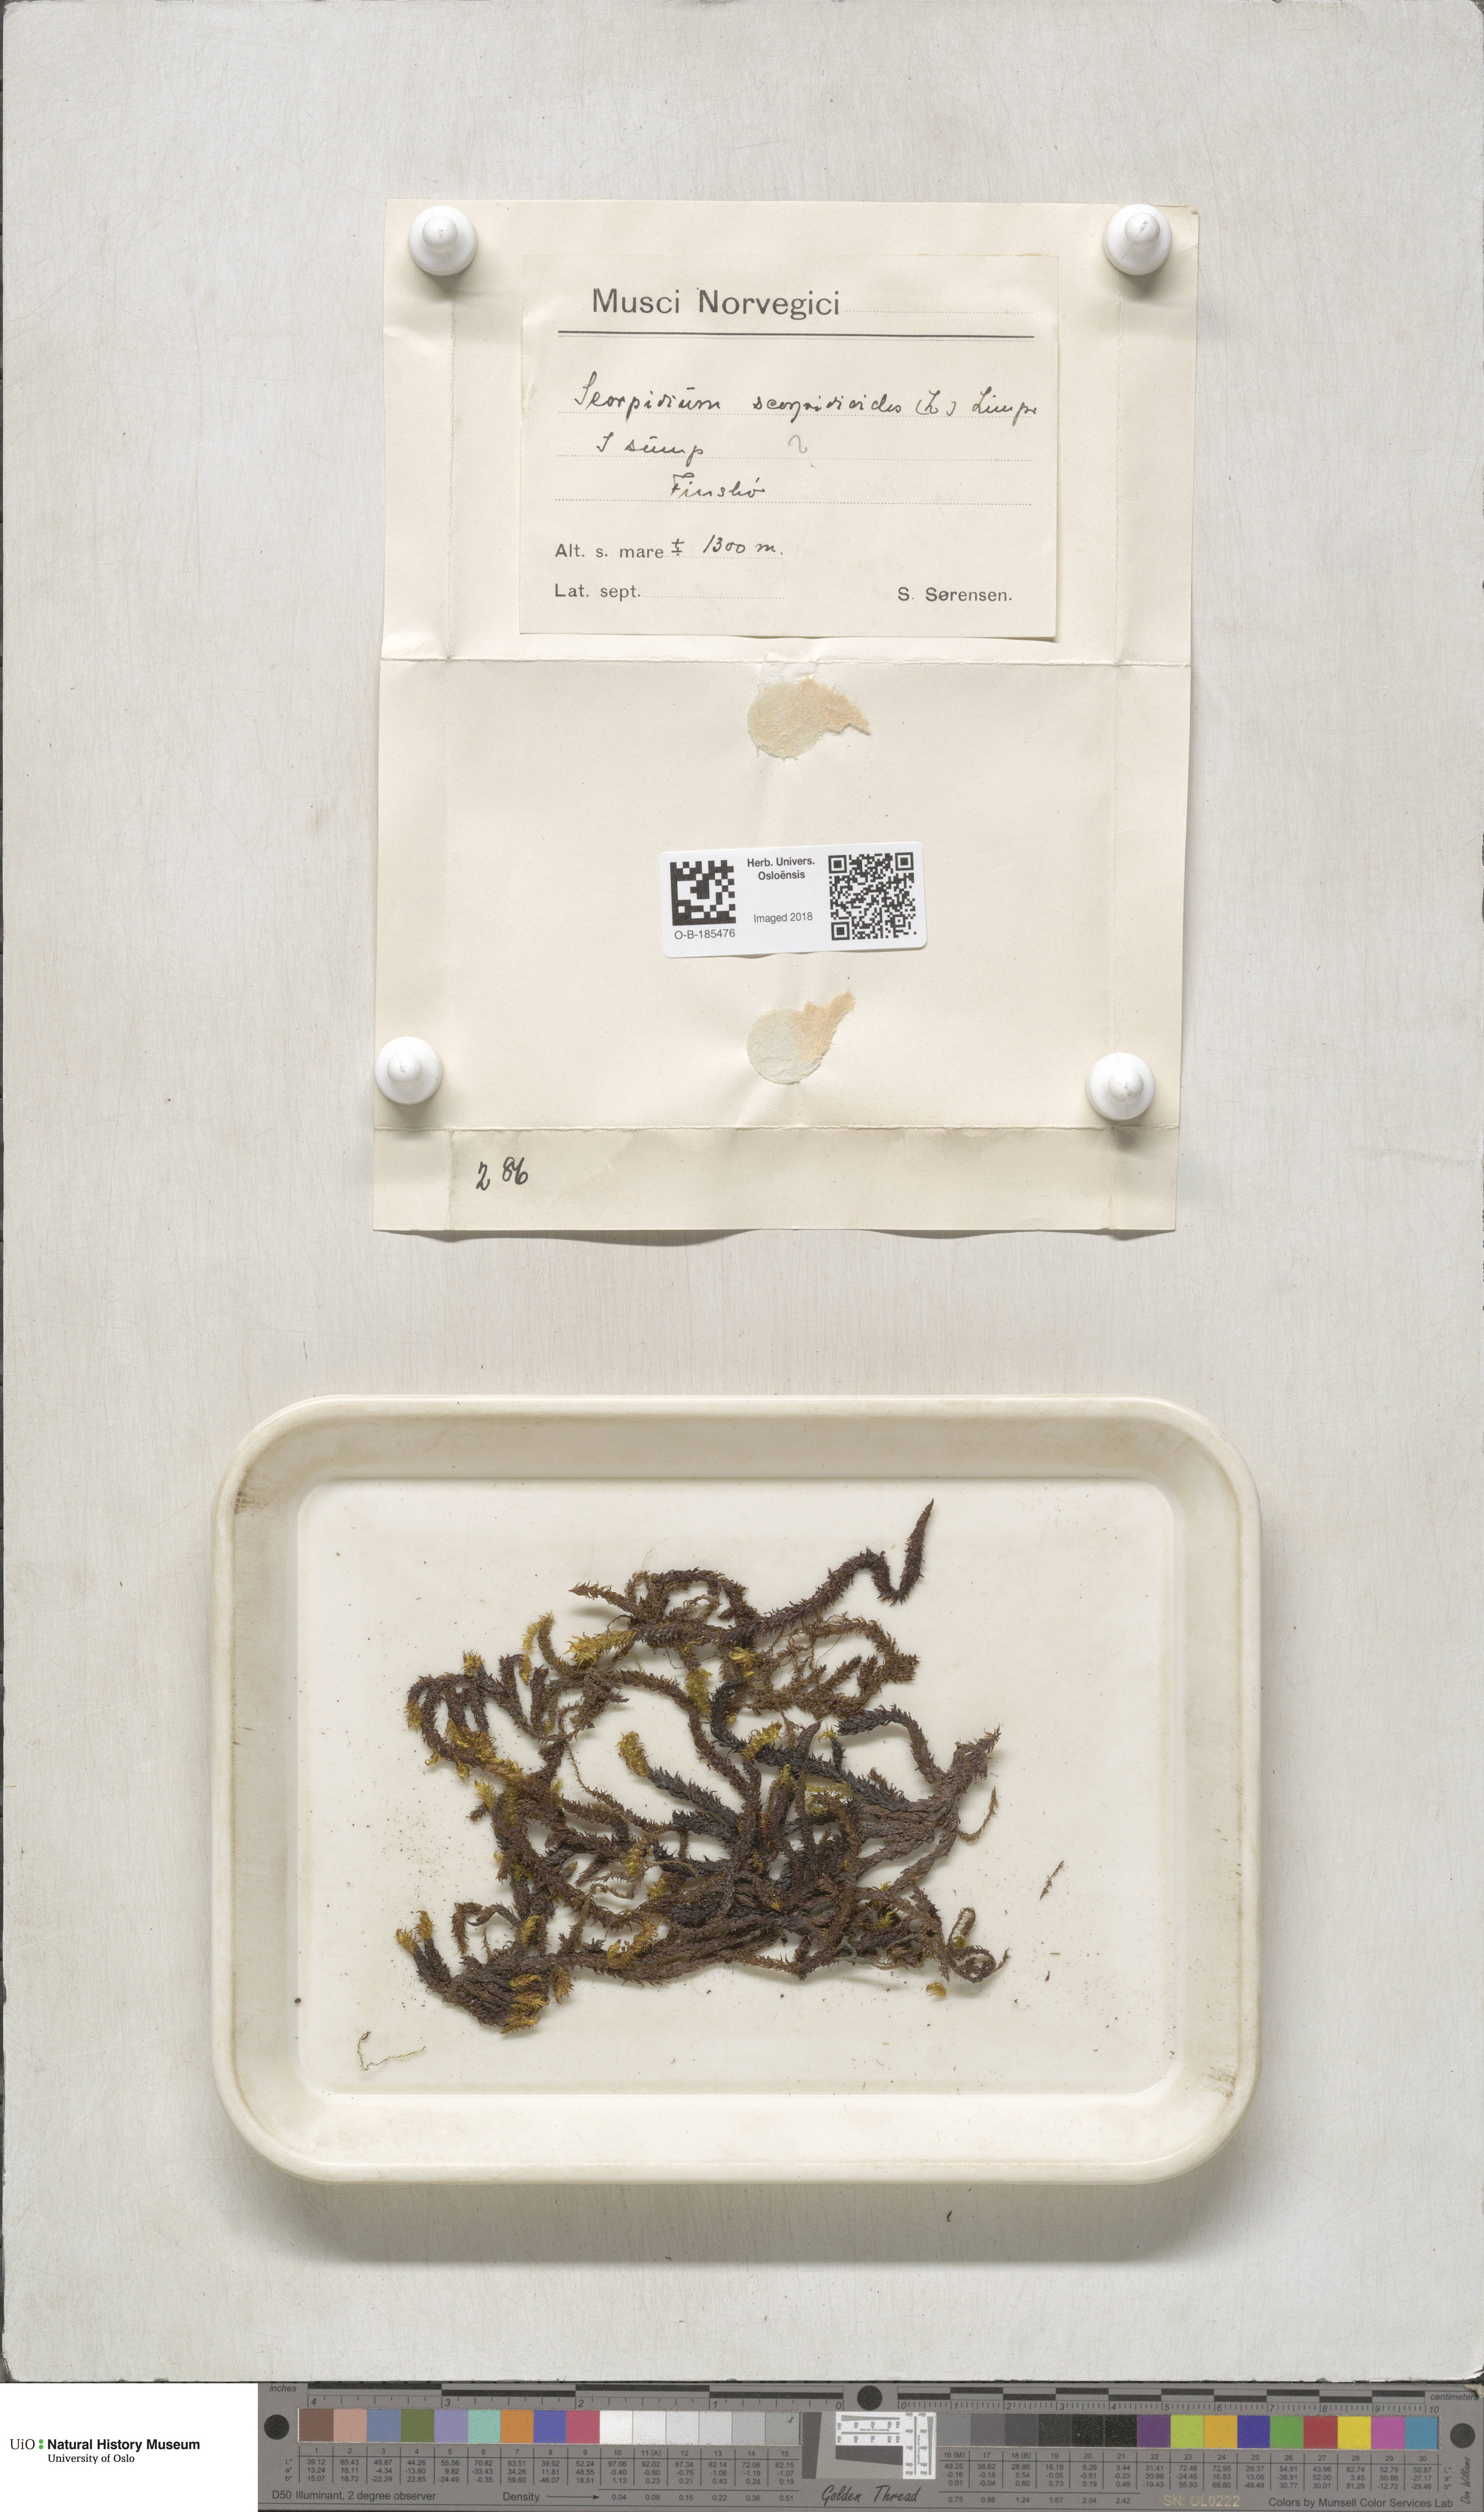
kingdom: Plantae
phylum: Bryophyta
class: Bryopsida
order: Hypnales
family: Scorpidiaceae
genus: Scorpidium
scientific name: Scorpidium scorpioides
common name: Hooked scorpion moss
